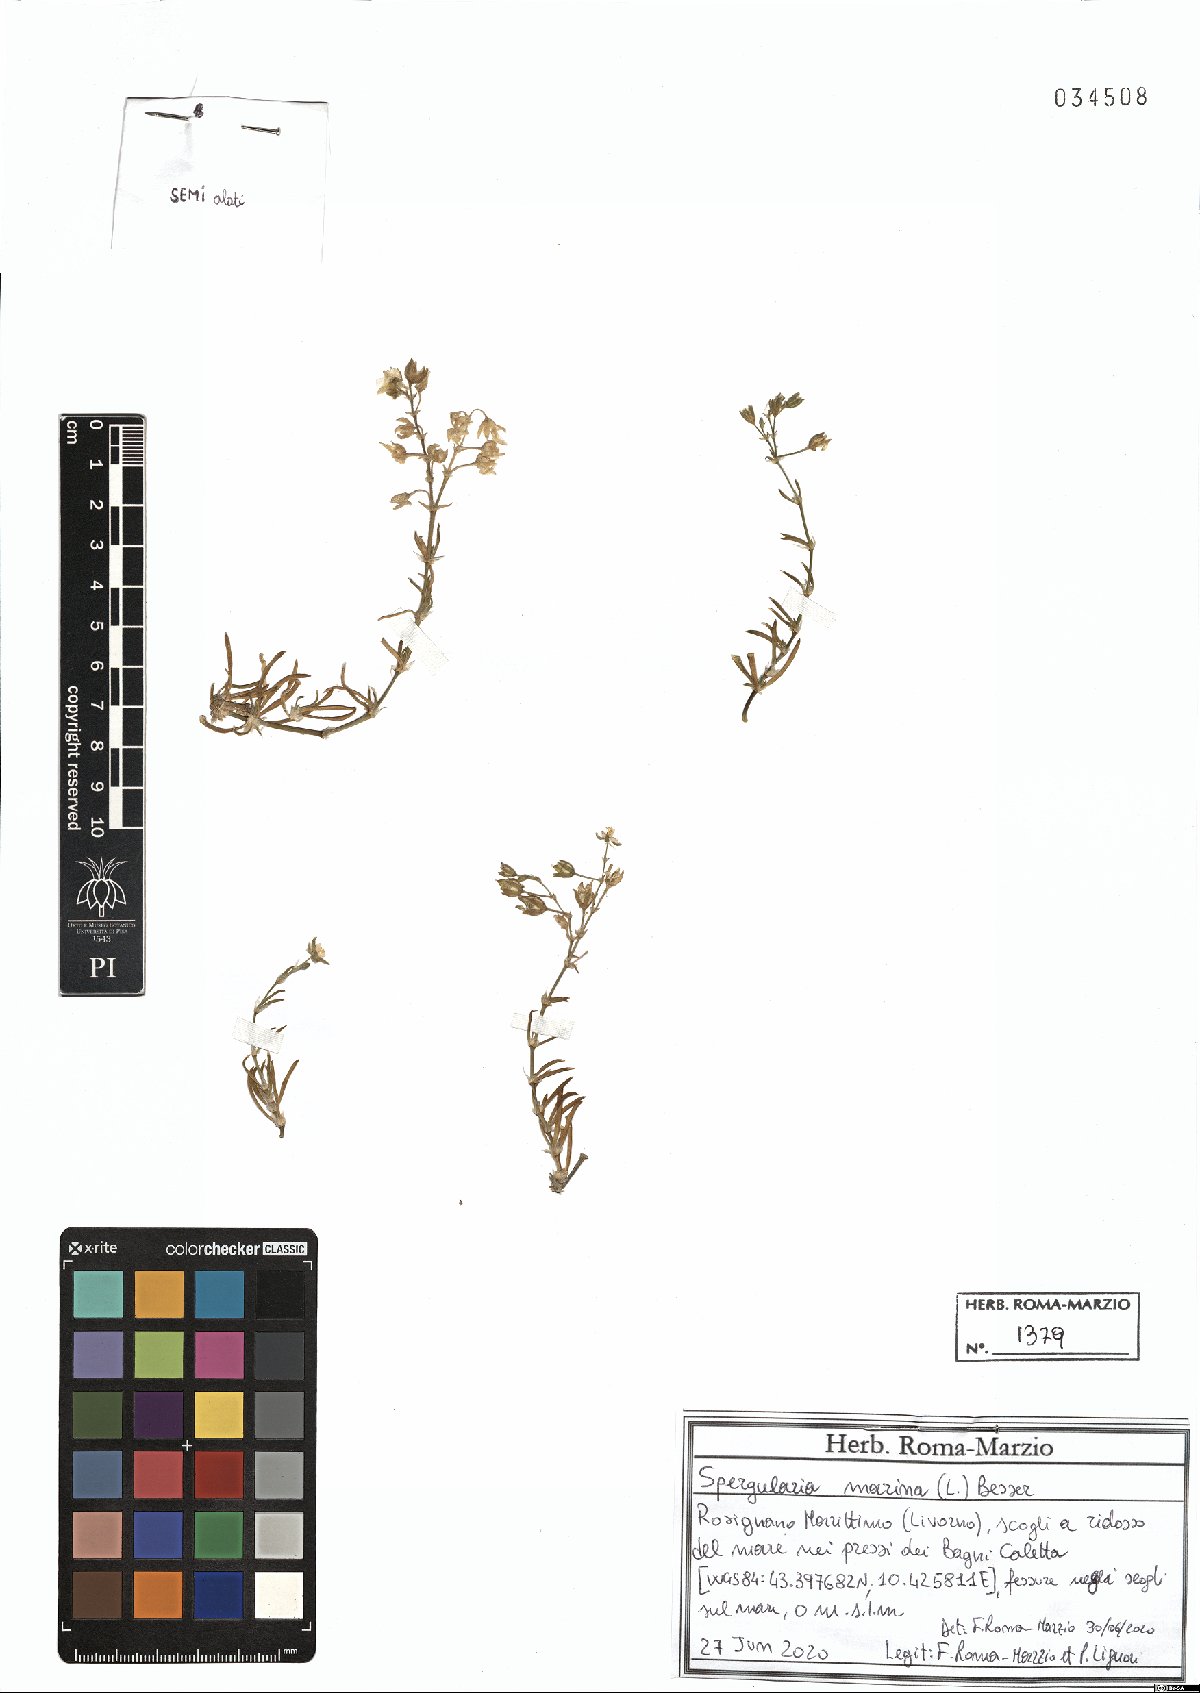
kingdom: Plantae
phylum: Tracheophyta
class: Magnoliopsida
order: Caryophyllales
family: Caryophyllaceae
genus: Spergularia
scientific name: Spergularia marina
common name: Lesser sea-spurrey
